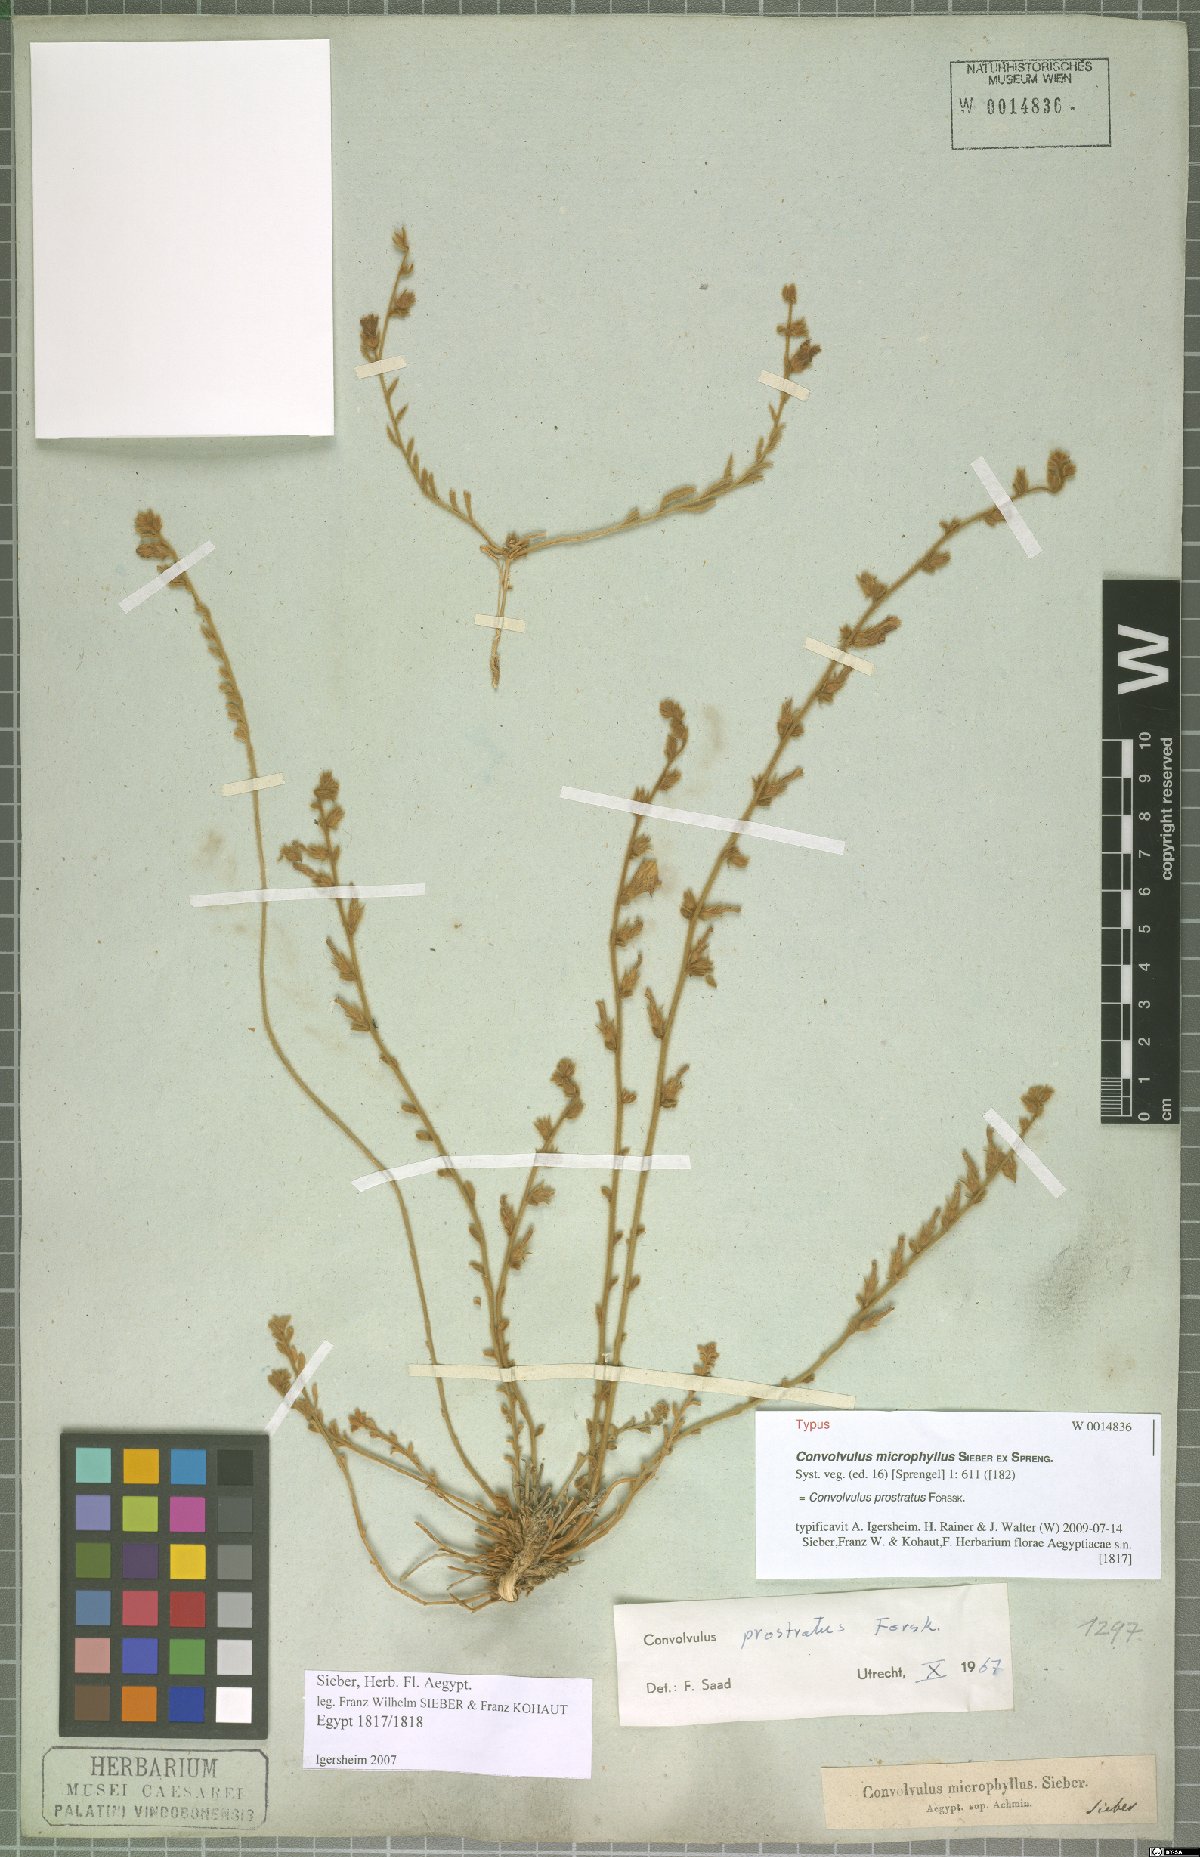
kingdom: Plantae
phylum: Tracheophyta
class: Magnoliopsida
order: Solanales
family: Convolvulaceae
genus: Convolvulus
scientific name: Convolvulus prostratus
